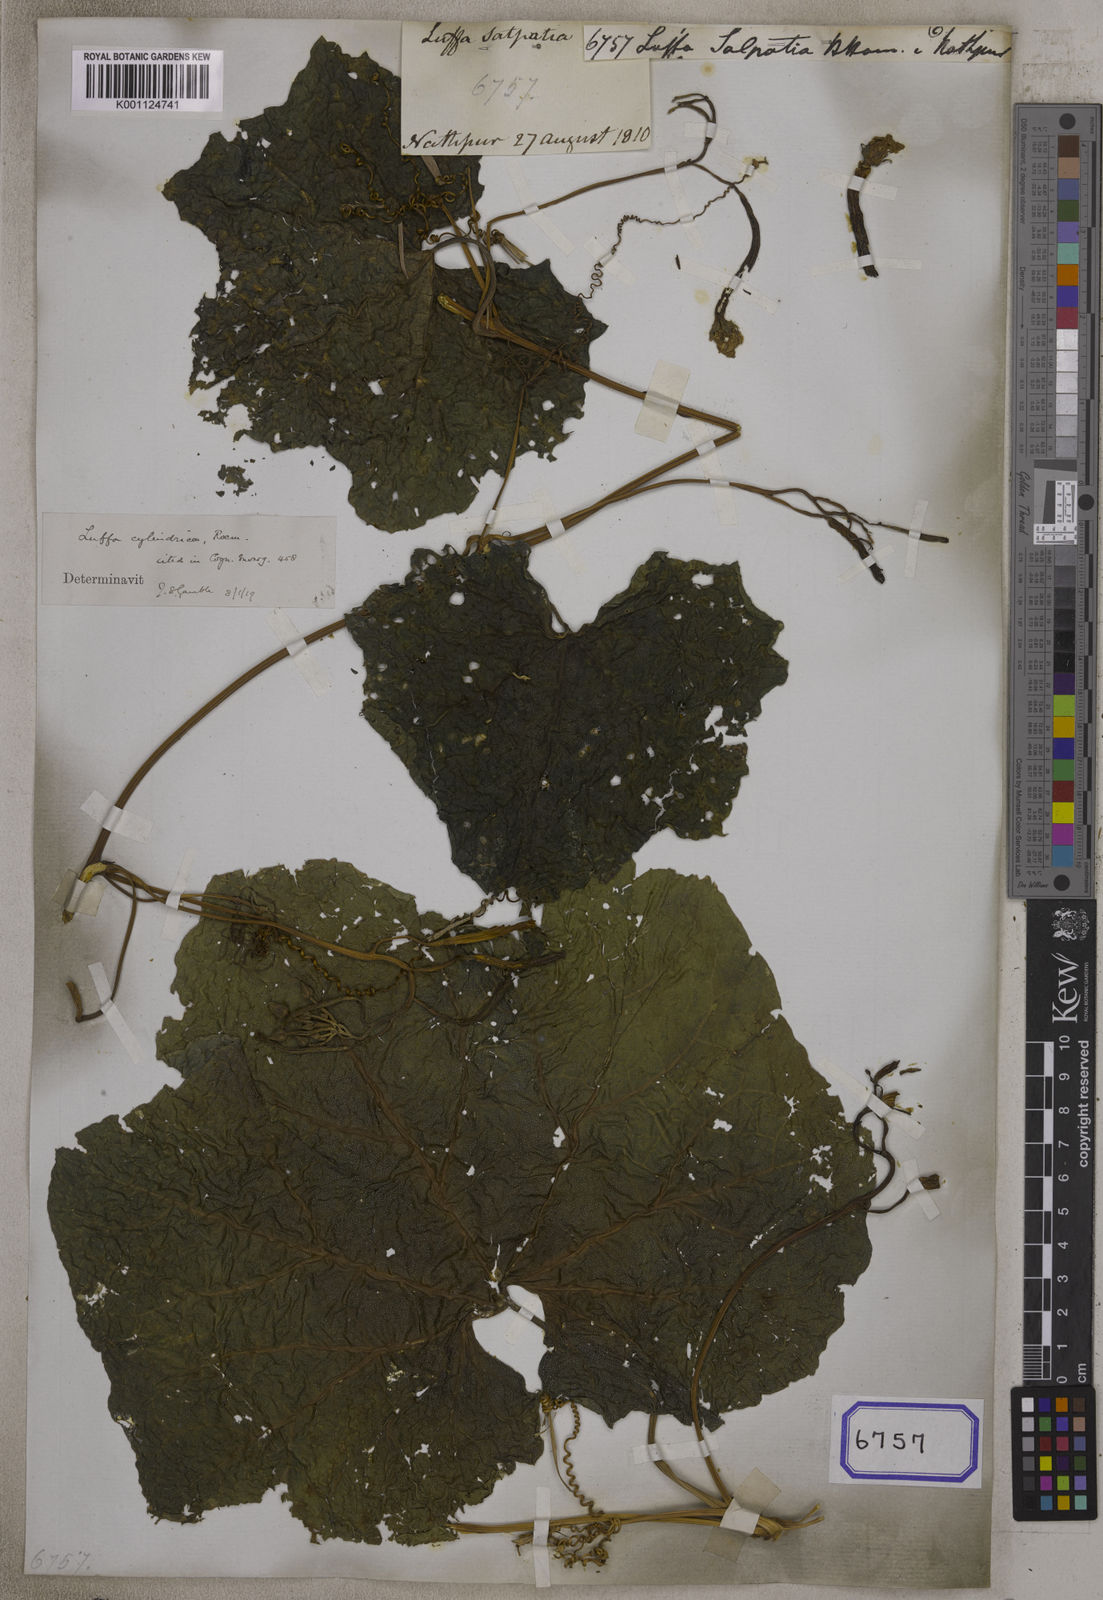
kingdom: Plantae
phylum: Tracheophyta
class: Magnoliopsida
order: Cucurbitales
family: Cucurbitaceae
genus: Cucumis
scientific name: Cucumis melo
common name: Melon
